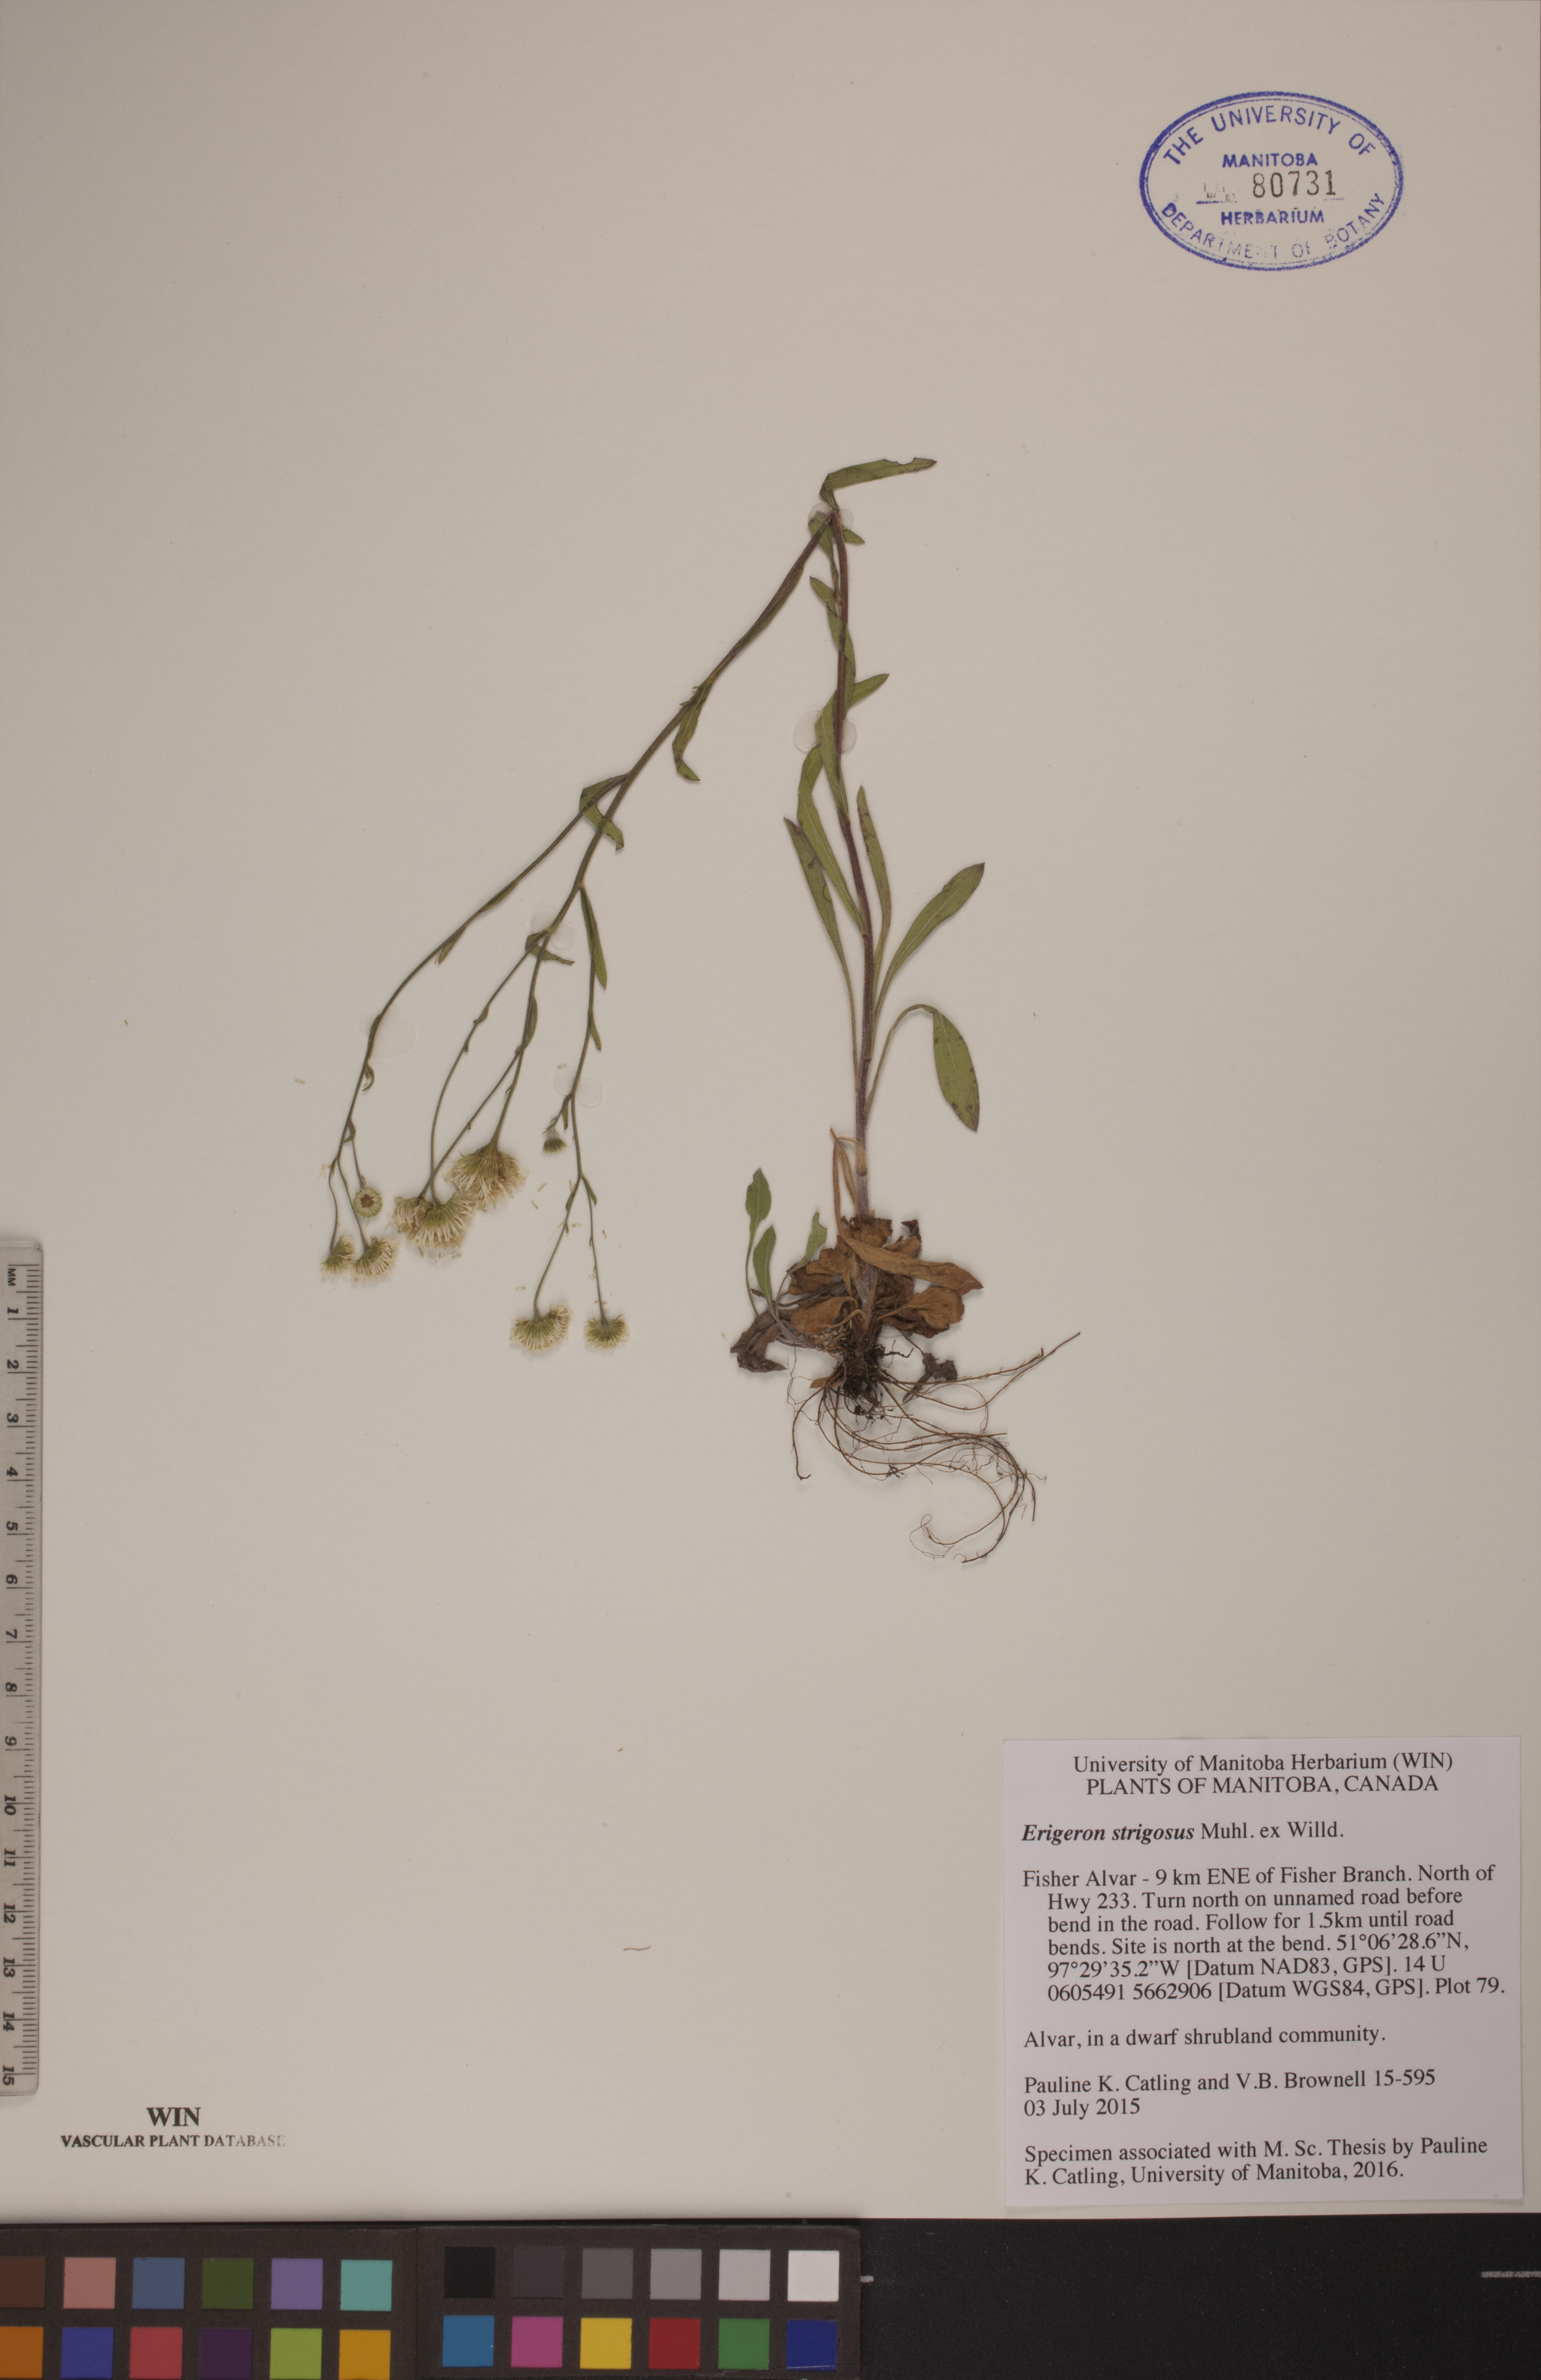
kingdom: Plantae
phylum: Tracheophyta
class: Magnoliopsida
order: Asterales
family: Asteraceae
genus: Erigeron
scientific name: Erigeron strigosus
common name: Common eastern fleabane
